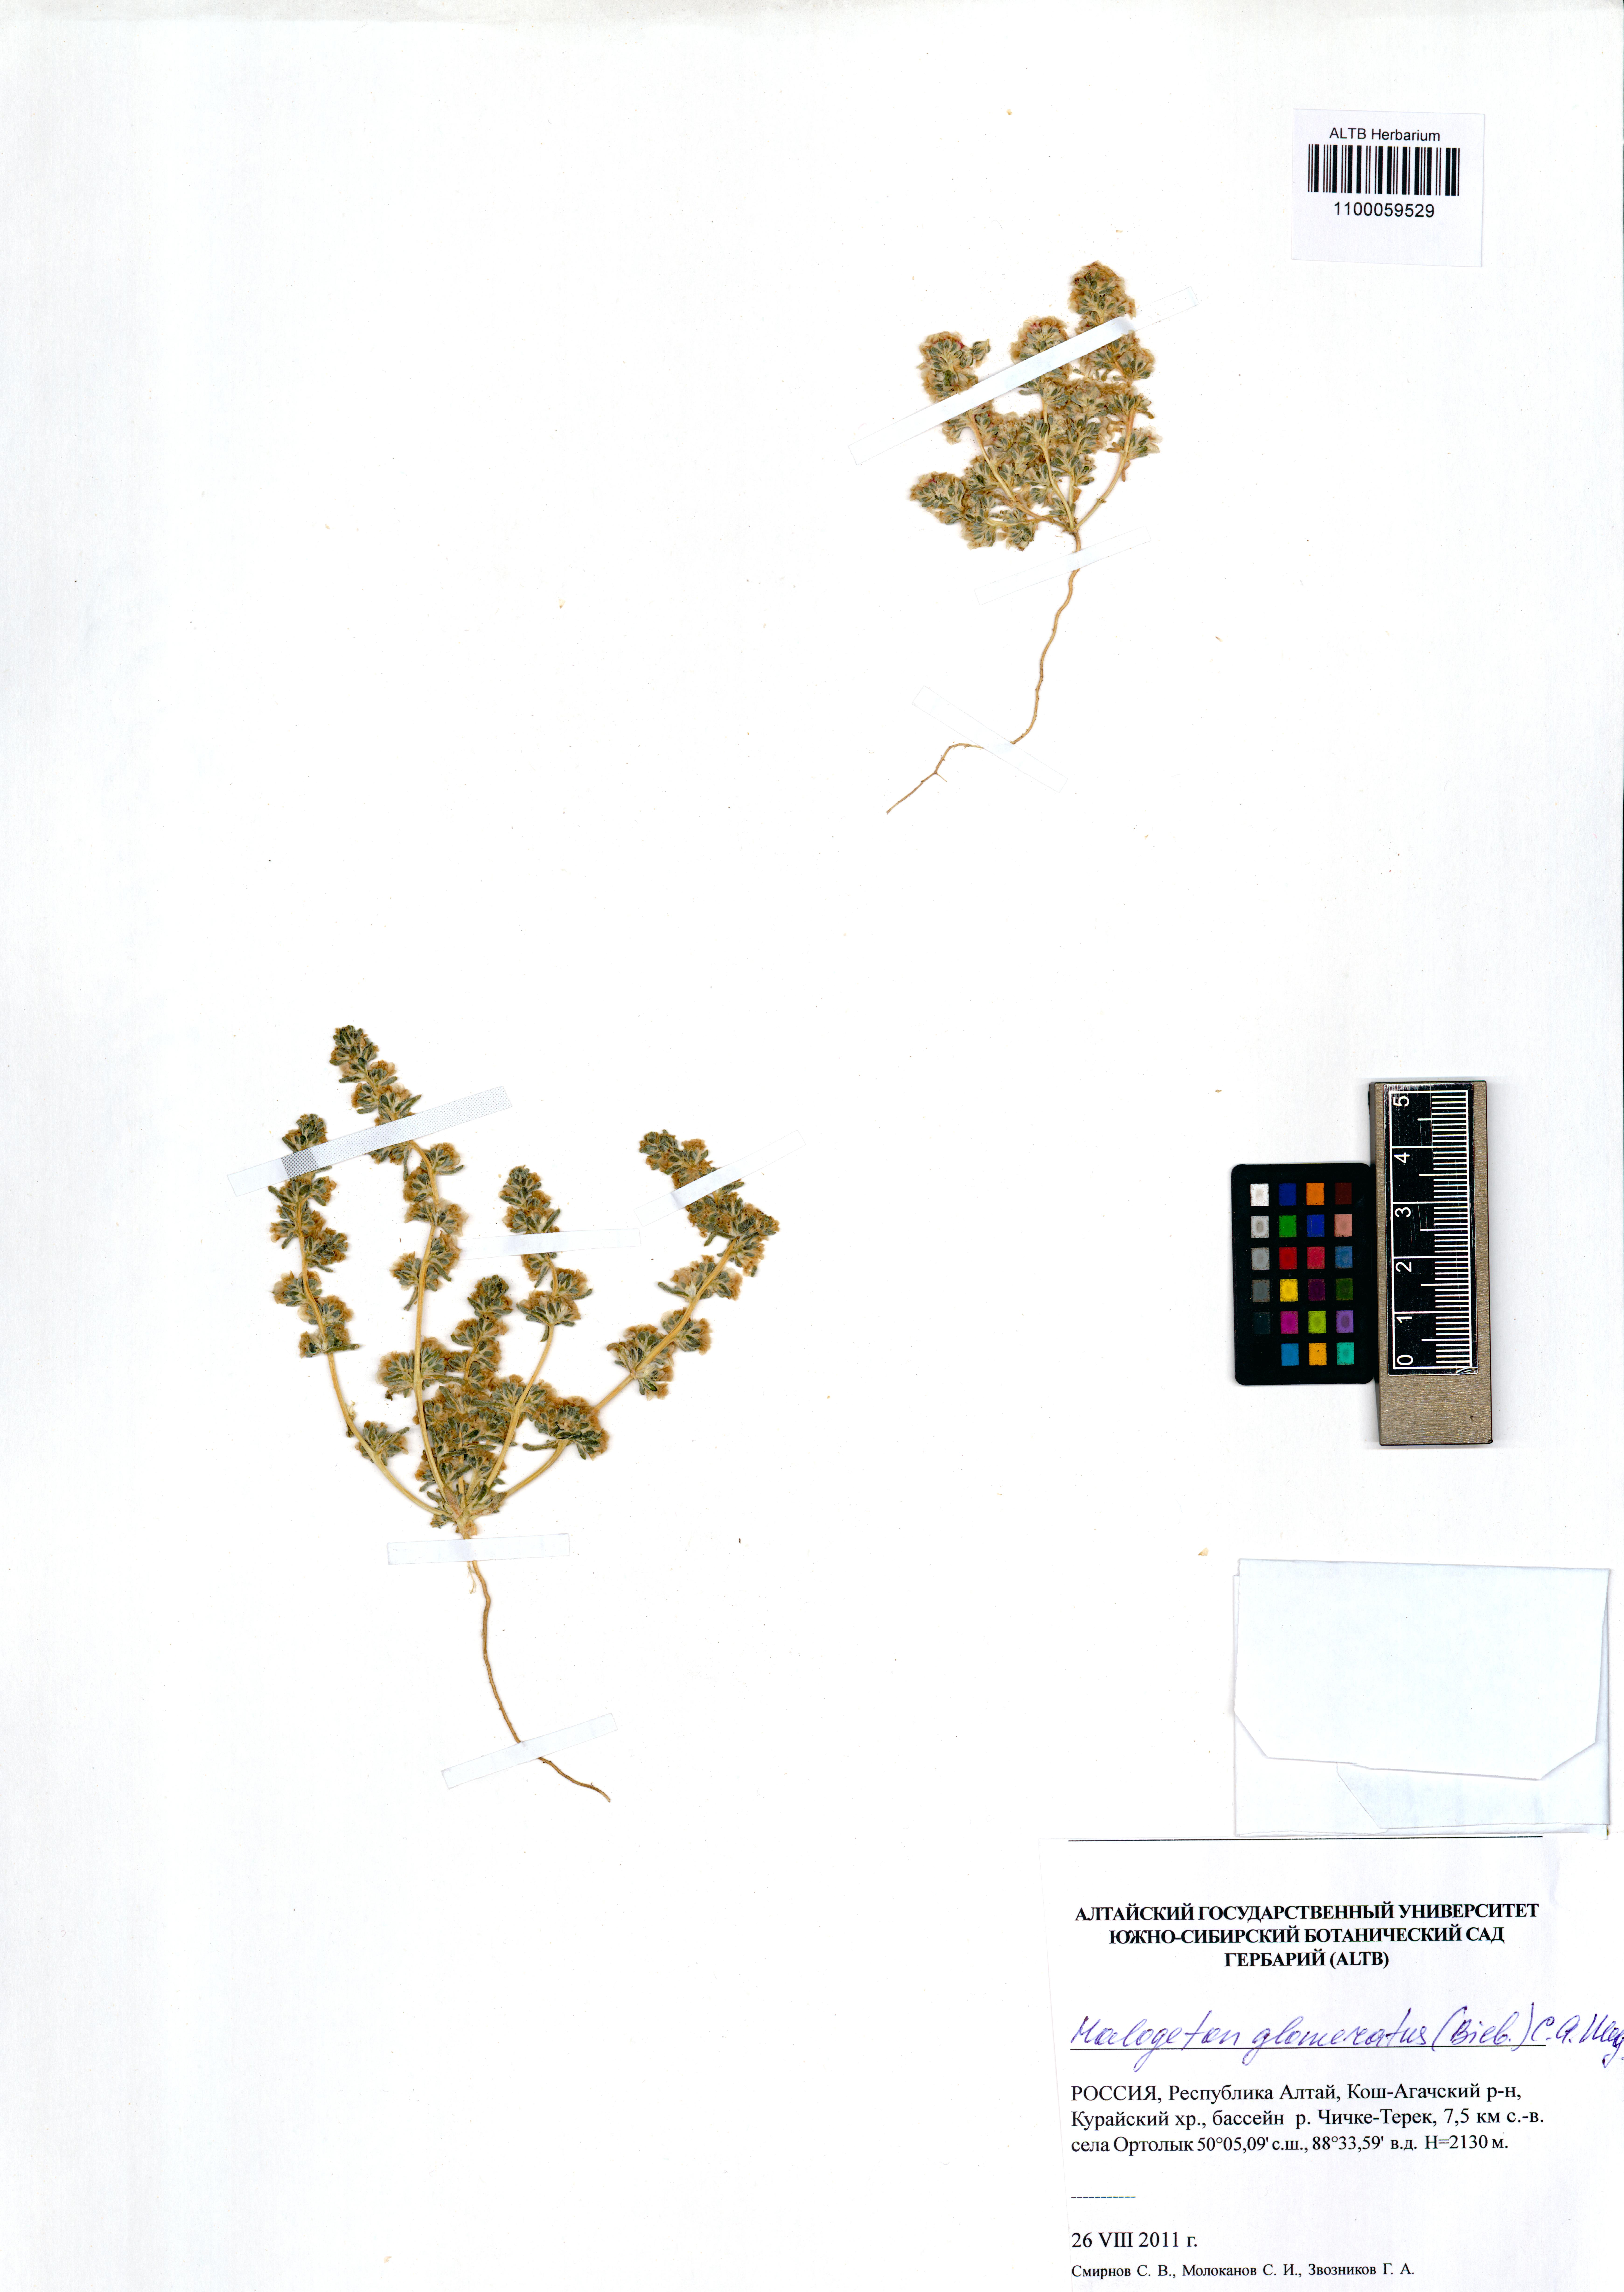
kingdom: Plantae
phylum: Tracheophyta
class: Magnoliopsida
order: Caryophyllales
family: Amaranthaceae
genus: Halogeton
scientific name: Halogeton glomeratus
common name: Saltlover
